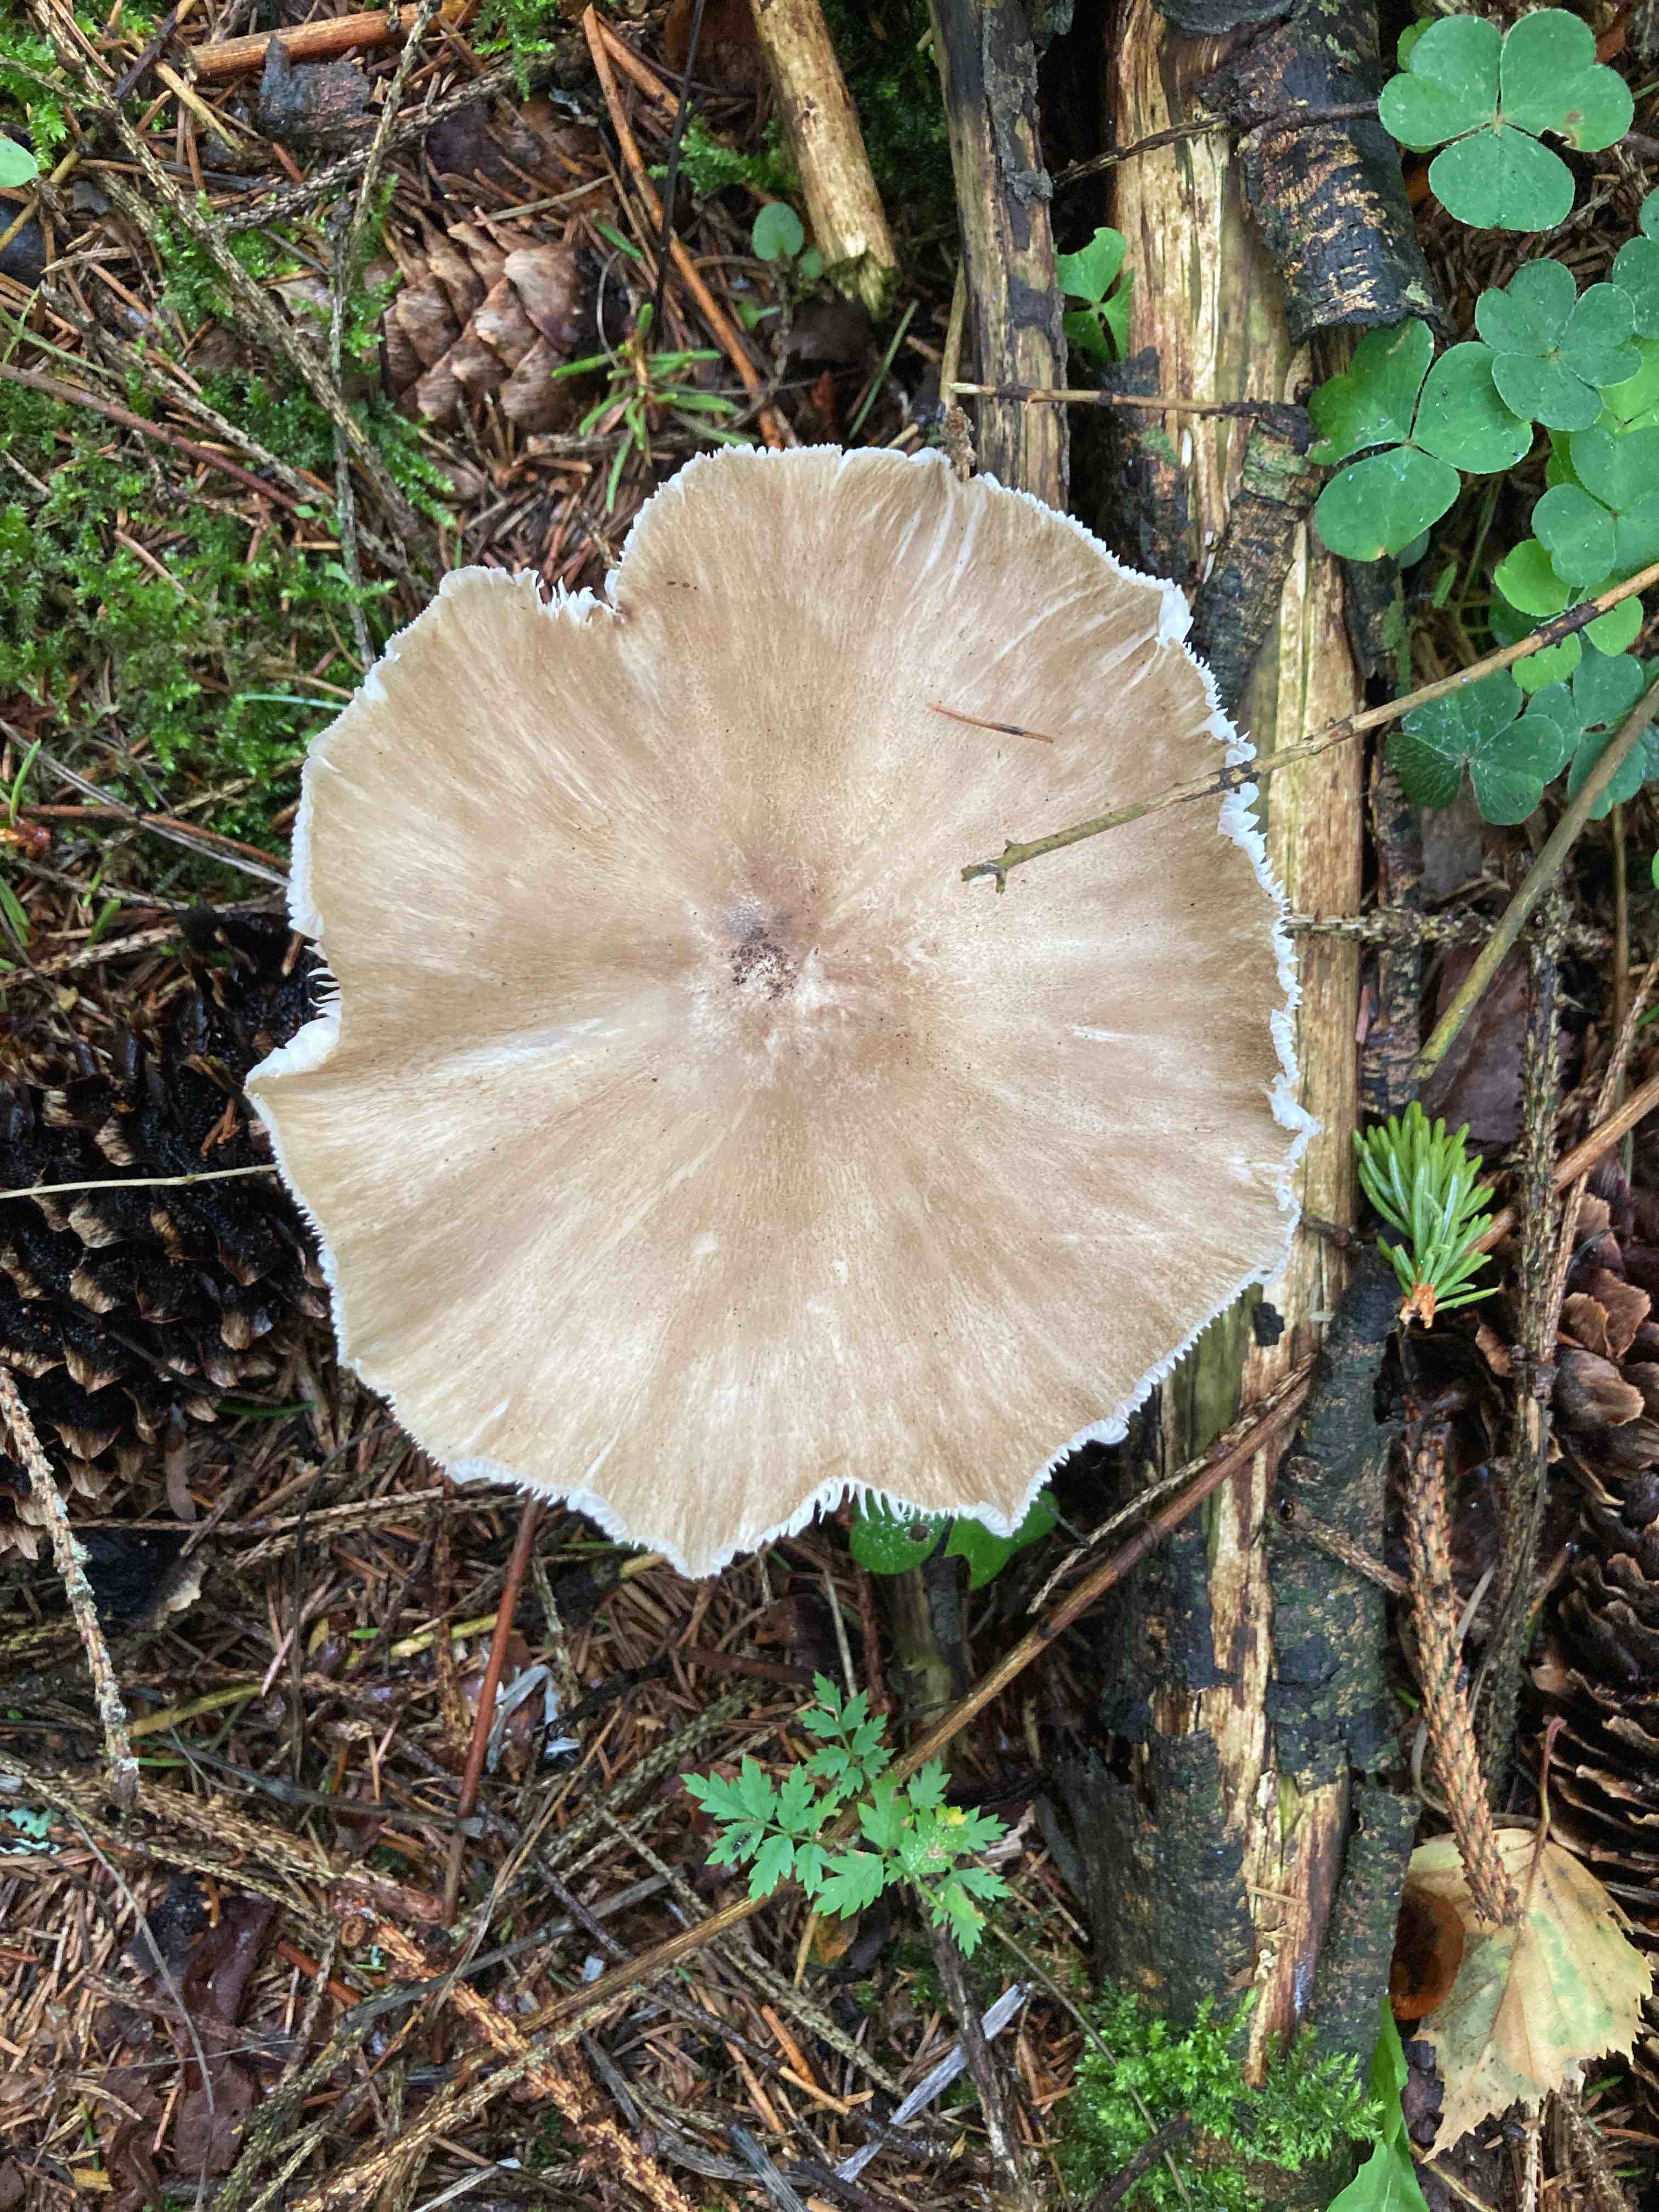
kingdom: Fungi
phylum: Basidiomycota
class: Agaricomycetes
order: Agaricales
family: Tricholomataceae
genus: Megacollybia
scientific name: Megacollybia platyphylla
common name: bredbladet væbnerhat
